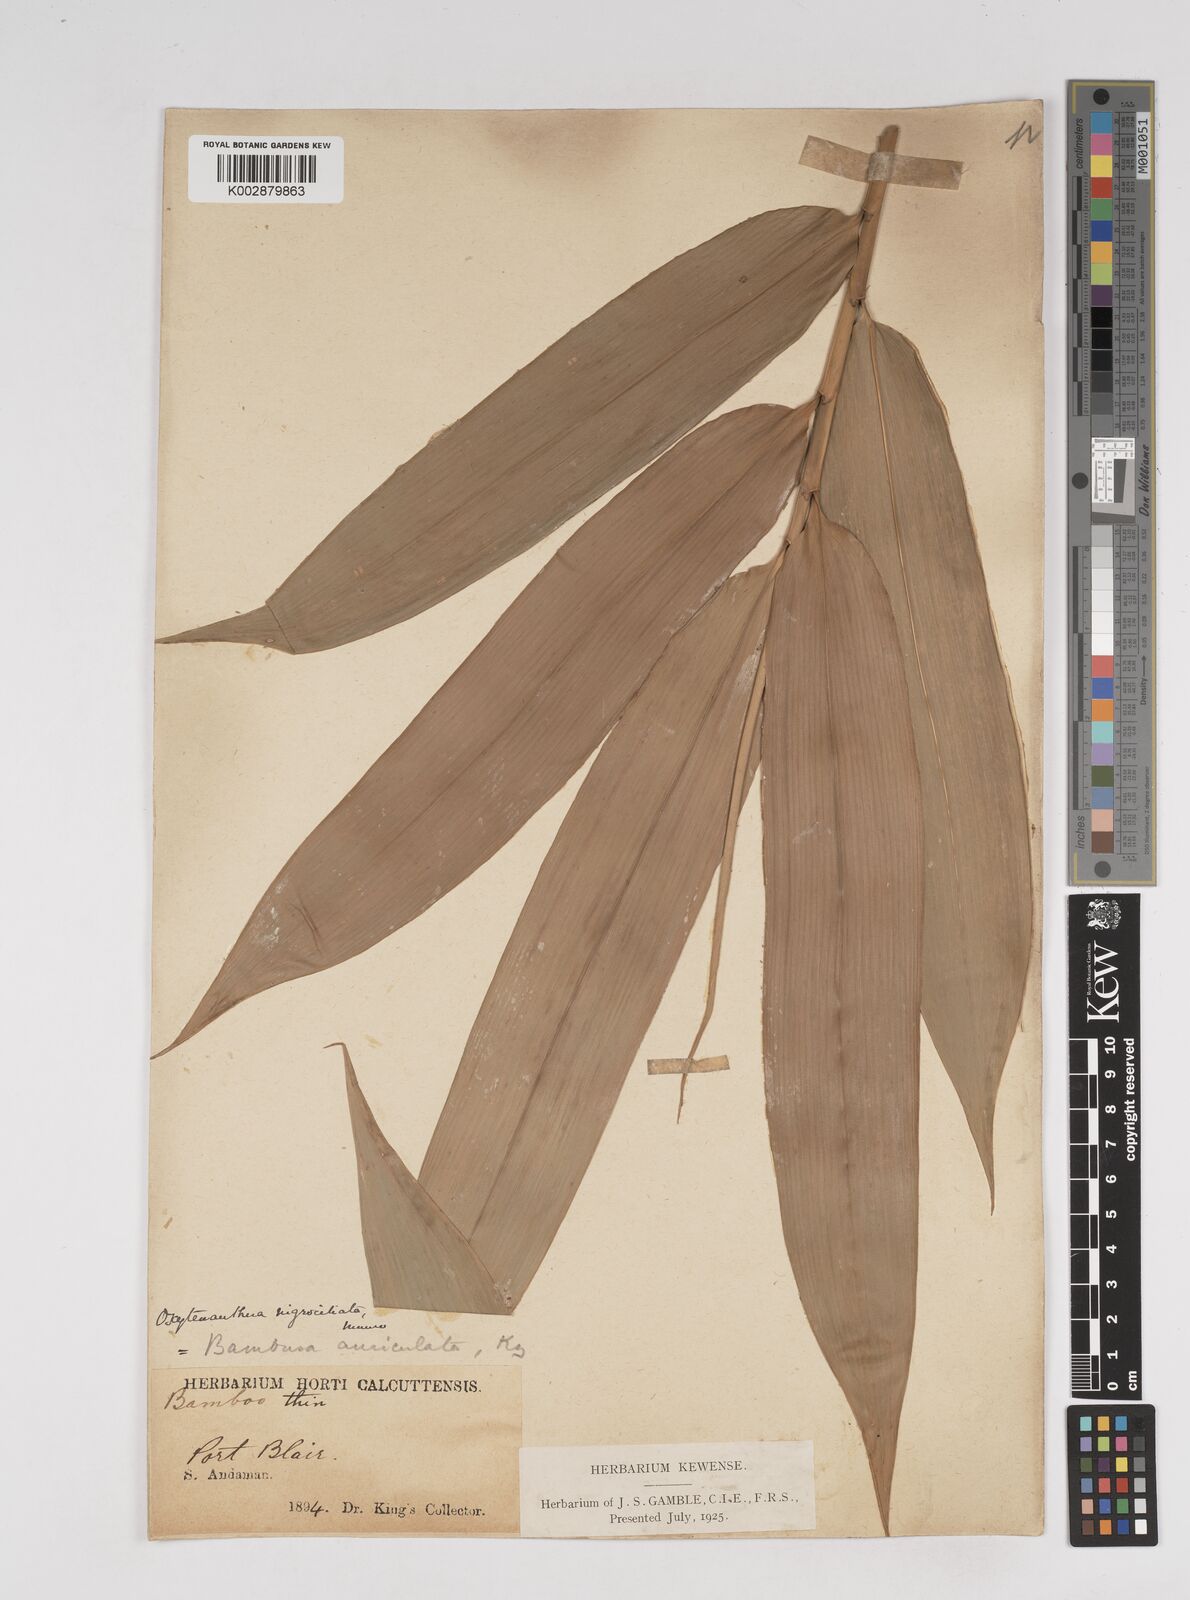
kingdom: Plantae
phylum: Tracheophyta
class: Liliopsida
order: Poales
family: Poaceae
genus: Gigantochloa
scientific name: Gigantochloa
